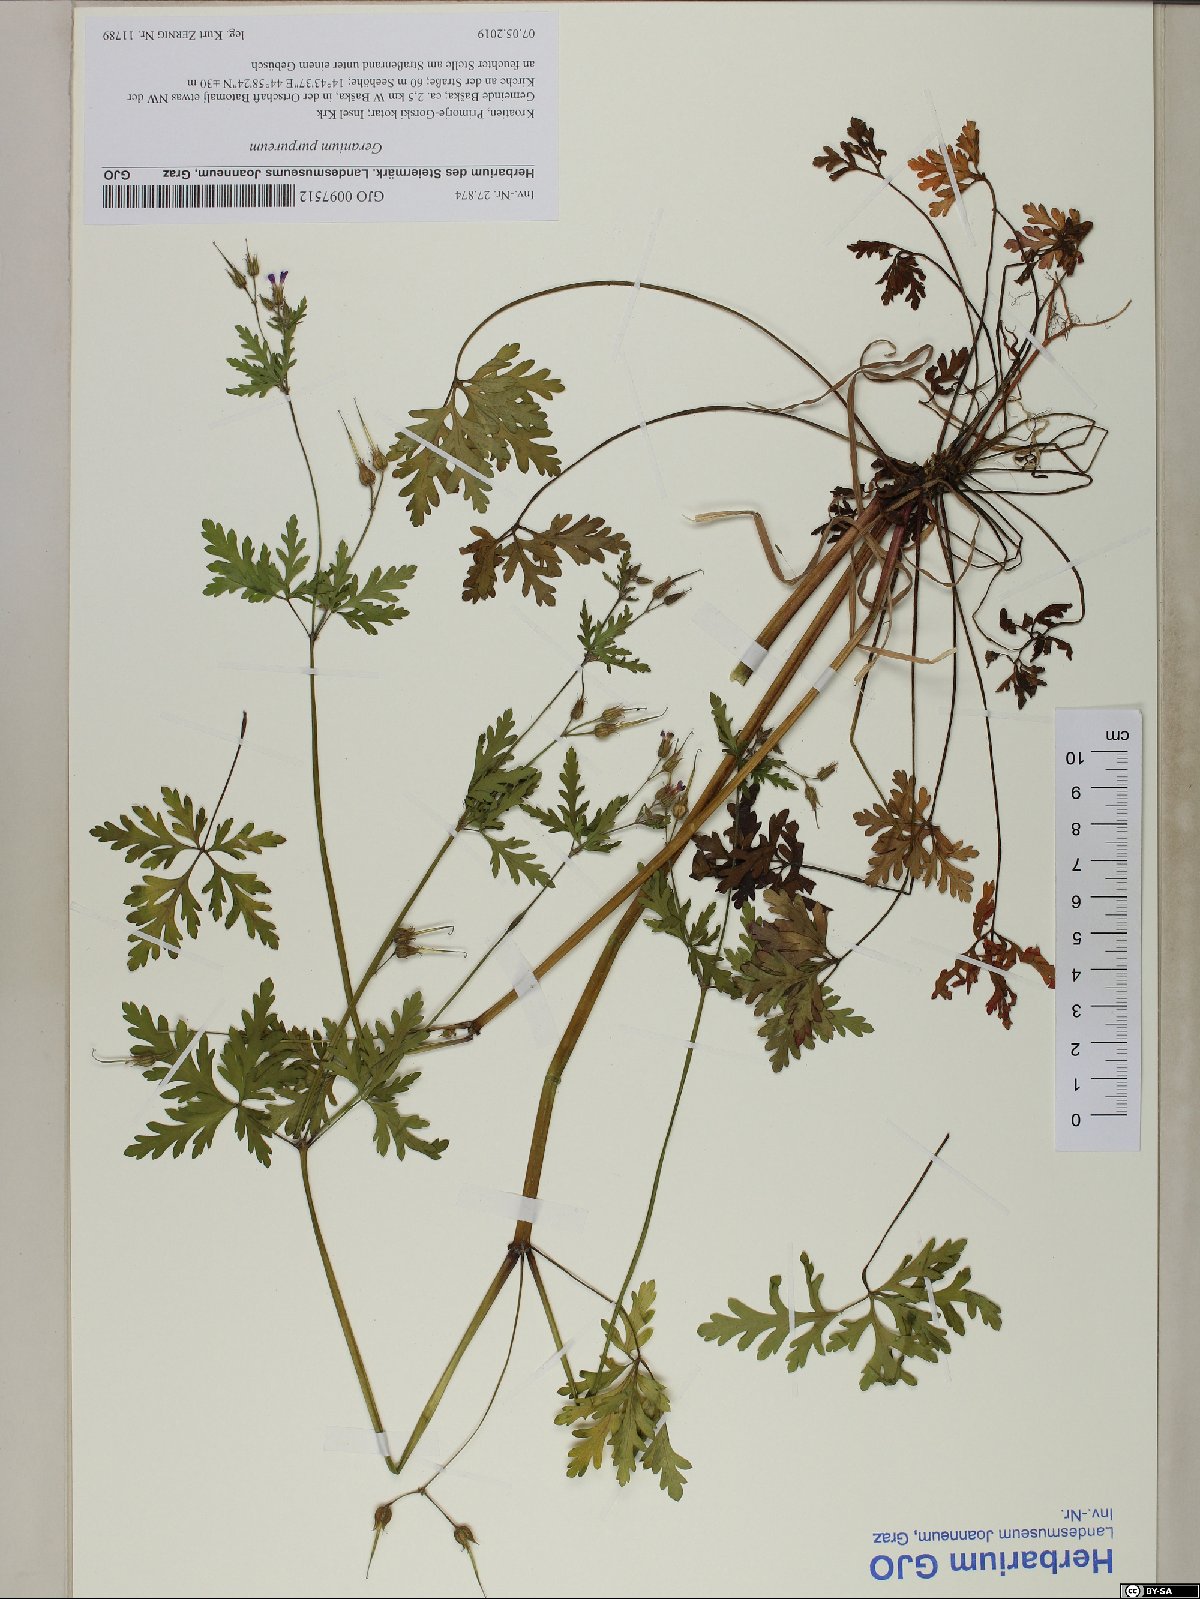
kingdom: Plantae
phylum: Tracheophyta
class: Magnoliopsida
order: Geraniales
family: Geraniaceae
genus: Geranium
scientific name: Geranium purpureum
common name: Little-robin
